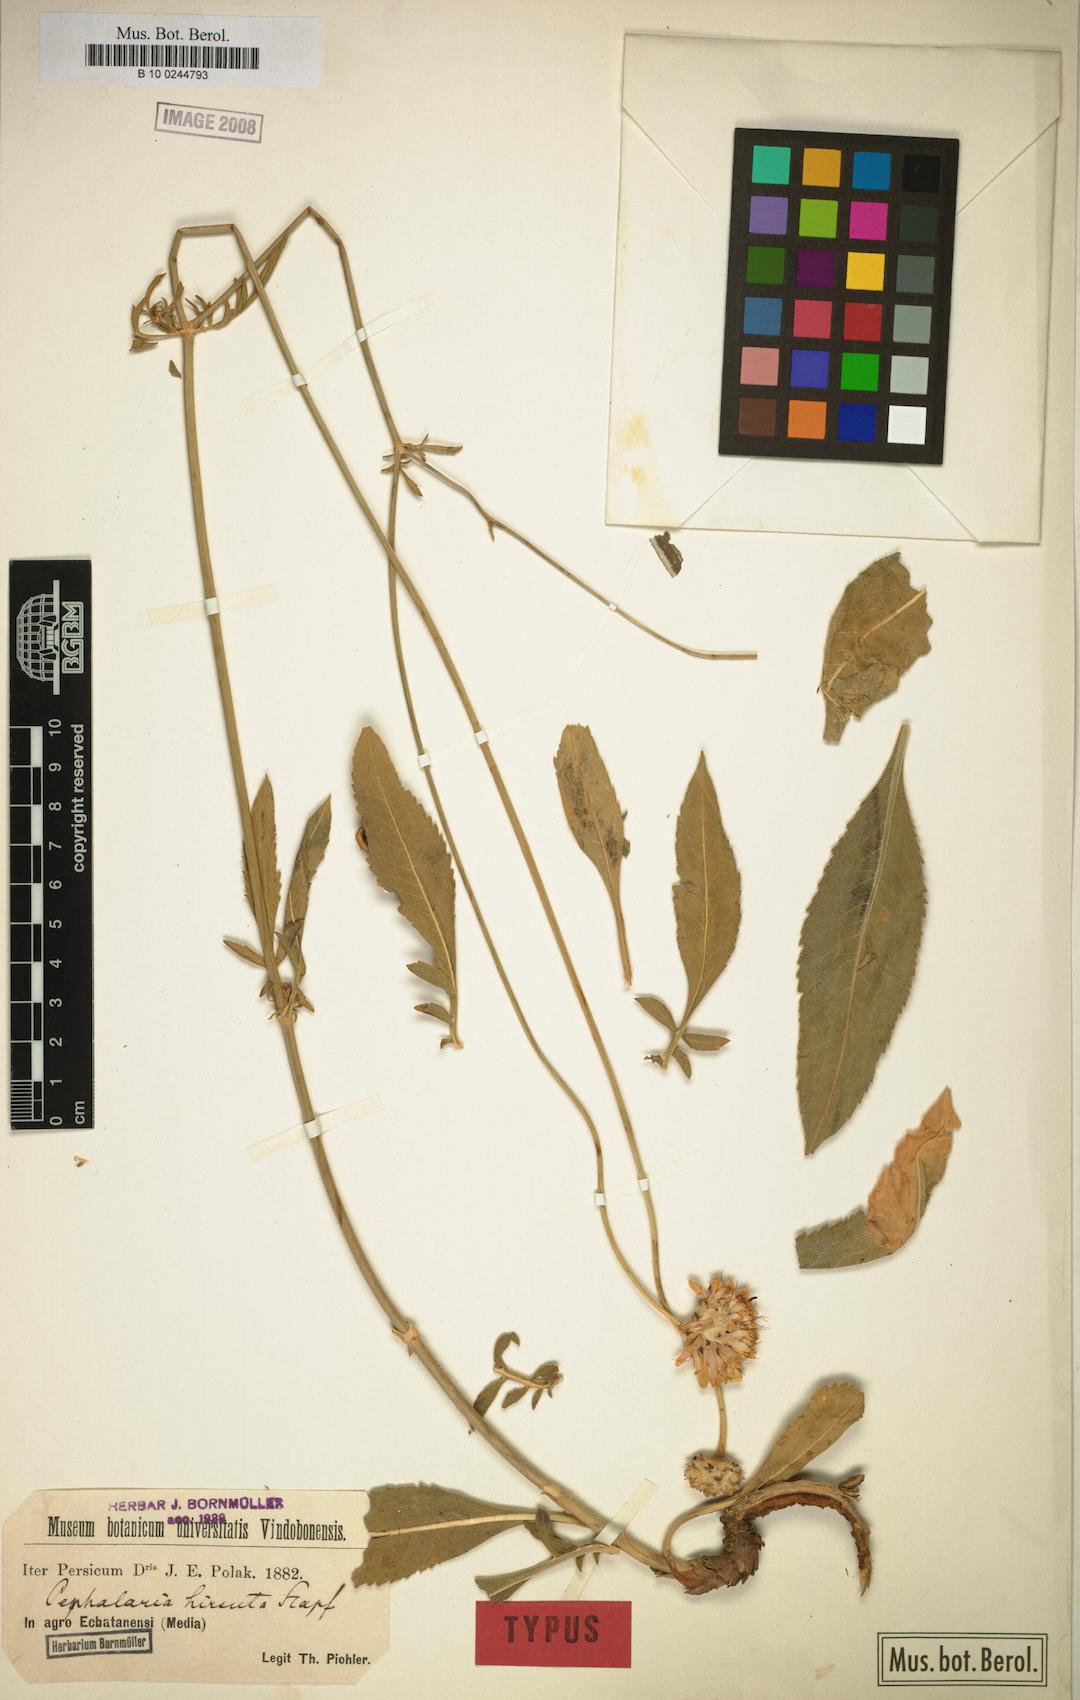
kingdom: Plantae
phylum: Tracheophyta
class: Magnoliopsida
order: Dipsacales
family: Caprifoliaceae
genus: Cephalaria
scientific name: Cephalaria hirsuta
